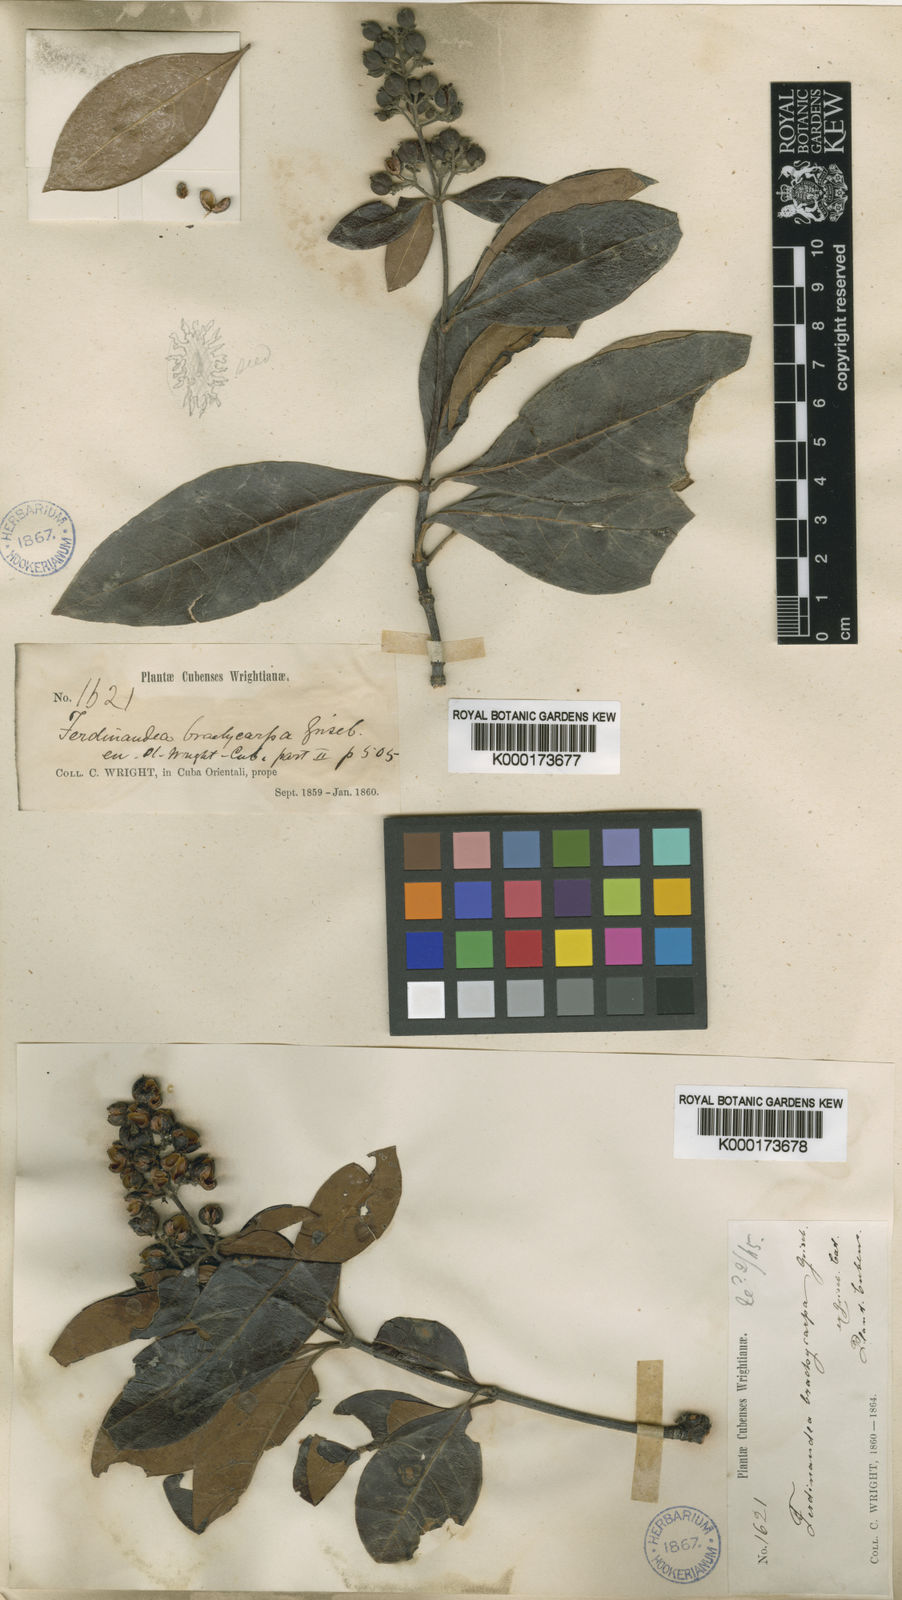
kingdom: Plantae
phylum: Tracheophyta
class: Magnoliopsida
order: Gentianales
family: Rubiaceae
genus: Suberanthus
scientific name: Suberanthus
